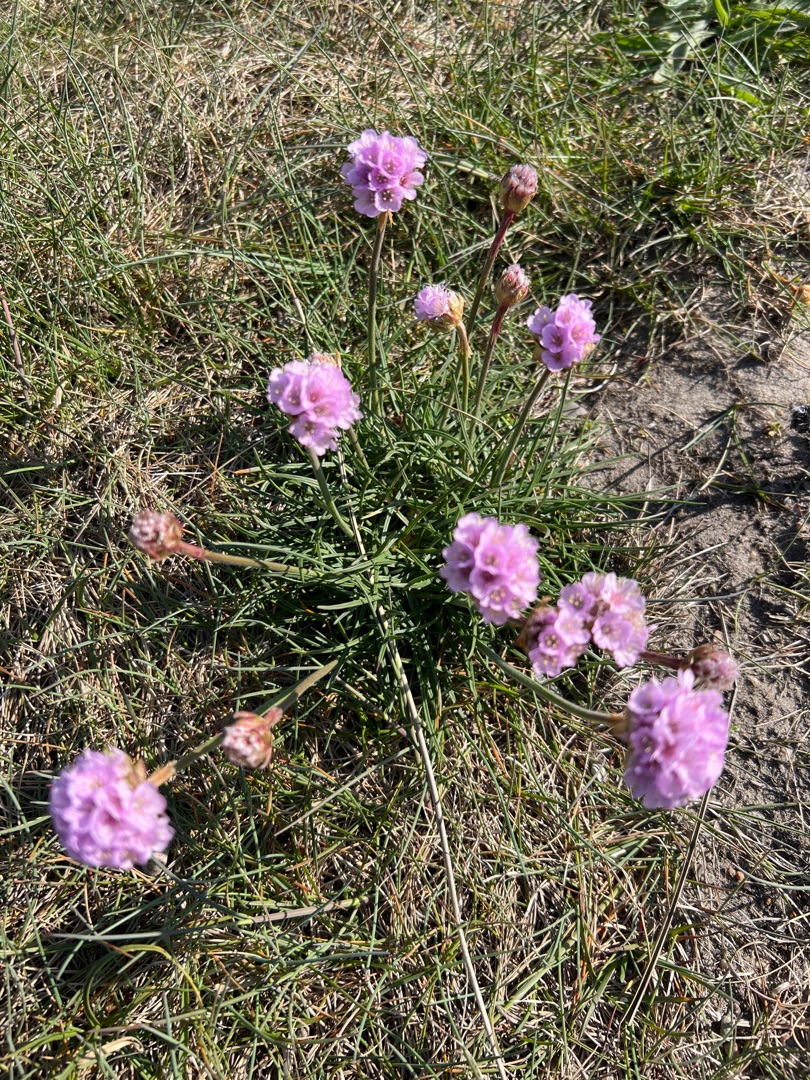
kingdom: Plantae
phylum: Tracheophyta
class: Magnoliopsida
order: Caryophyllales
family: Plumbaginaceae
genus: Armeria
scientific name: Armeria maritima
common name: Engelskgræs
